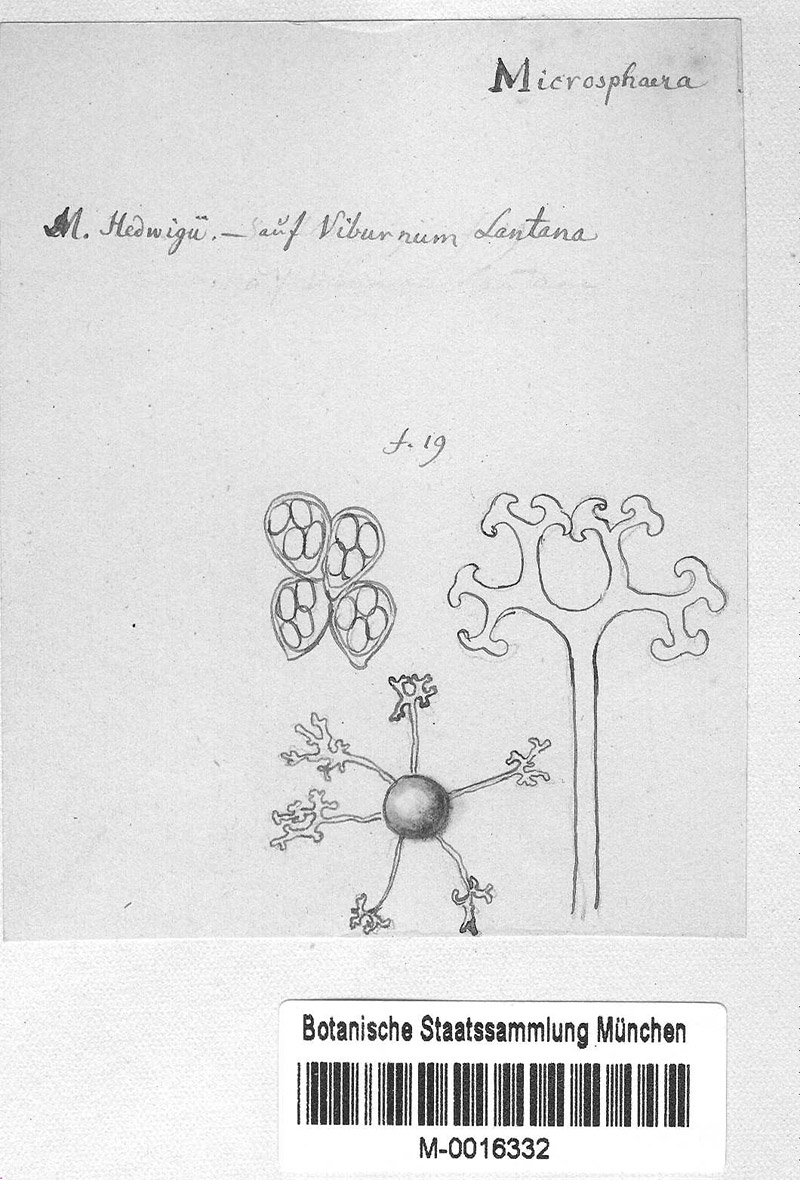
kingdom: Plantae
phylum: Tracheophyta
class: Magnoliopsida
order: Dipsacales
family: Viburnaceae
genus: Viburnum
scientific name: Viburnum lantana
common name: Wayfaring tree
